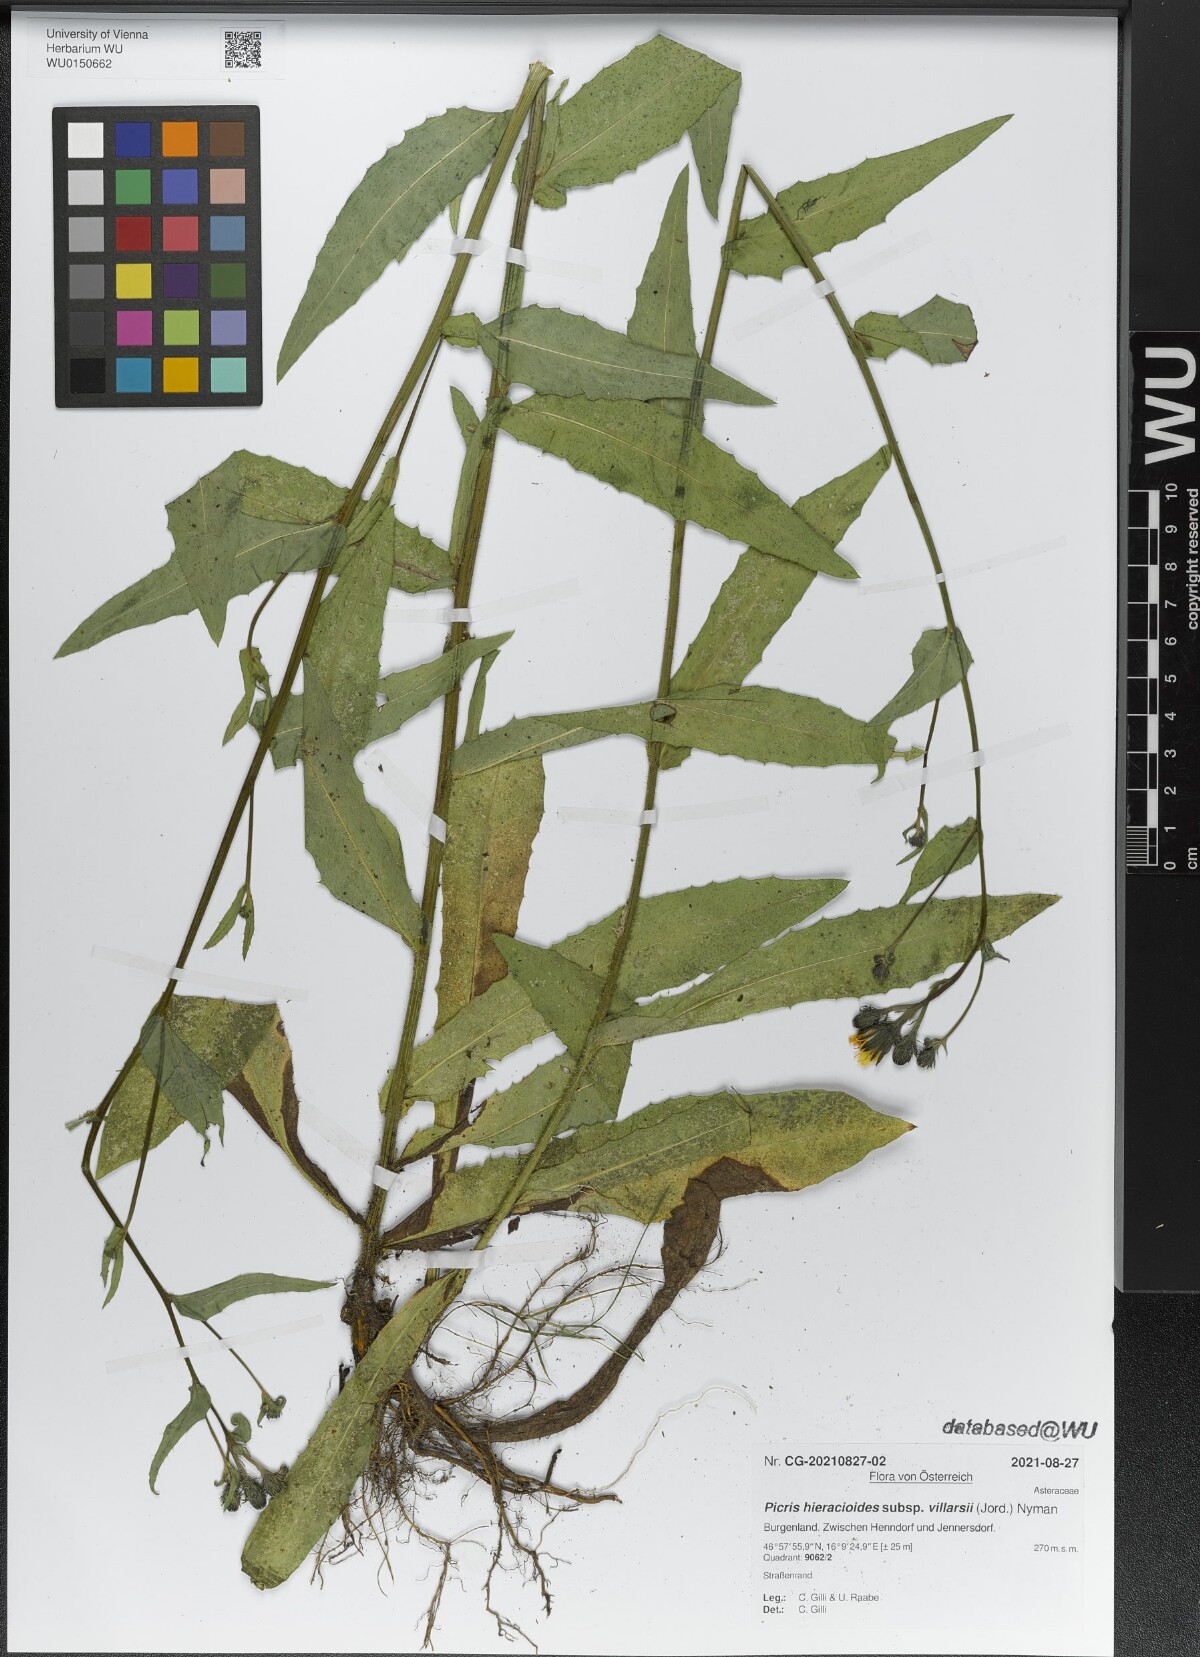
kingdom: Plantae
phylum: Tracheophyta
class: Magnoliopsida
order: Asterales
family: Asteraceae
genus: Picris
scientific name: Picris hieracioides
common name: Hawkweed oxtongue
